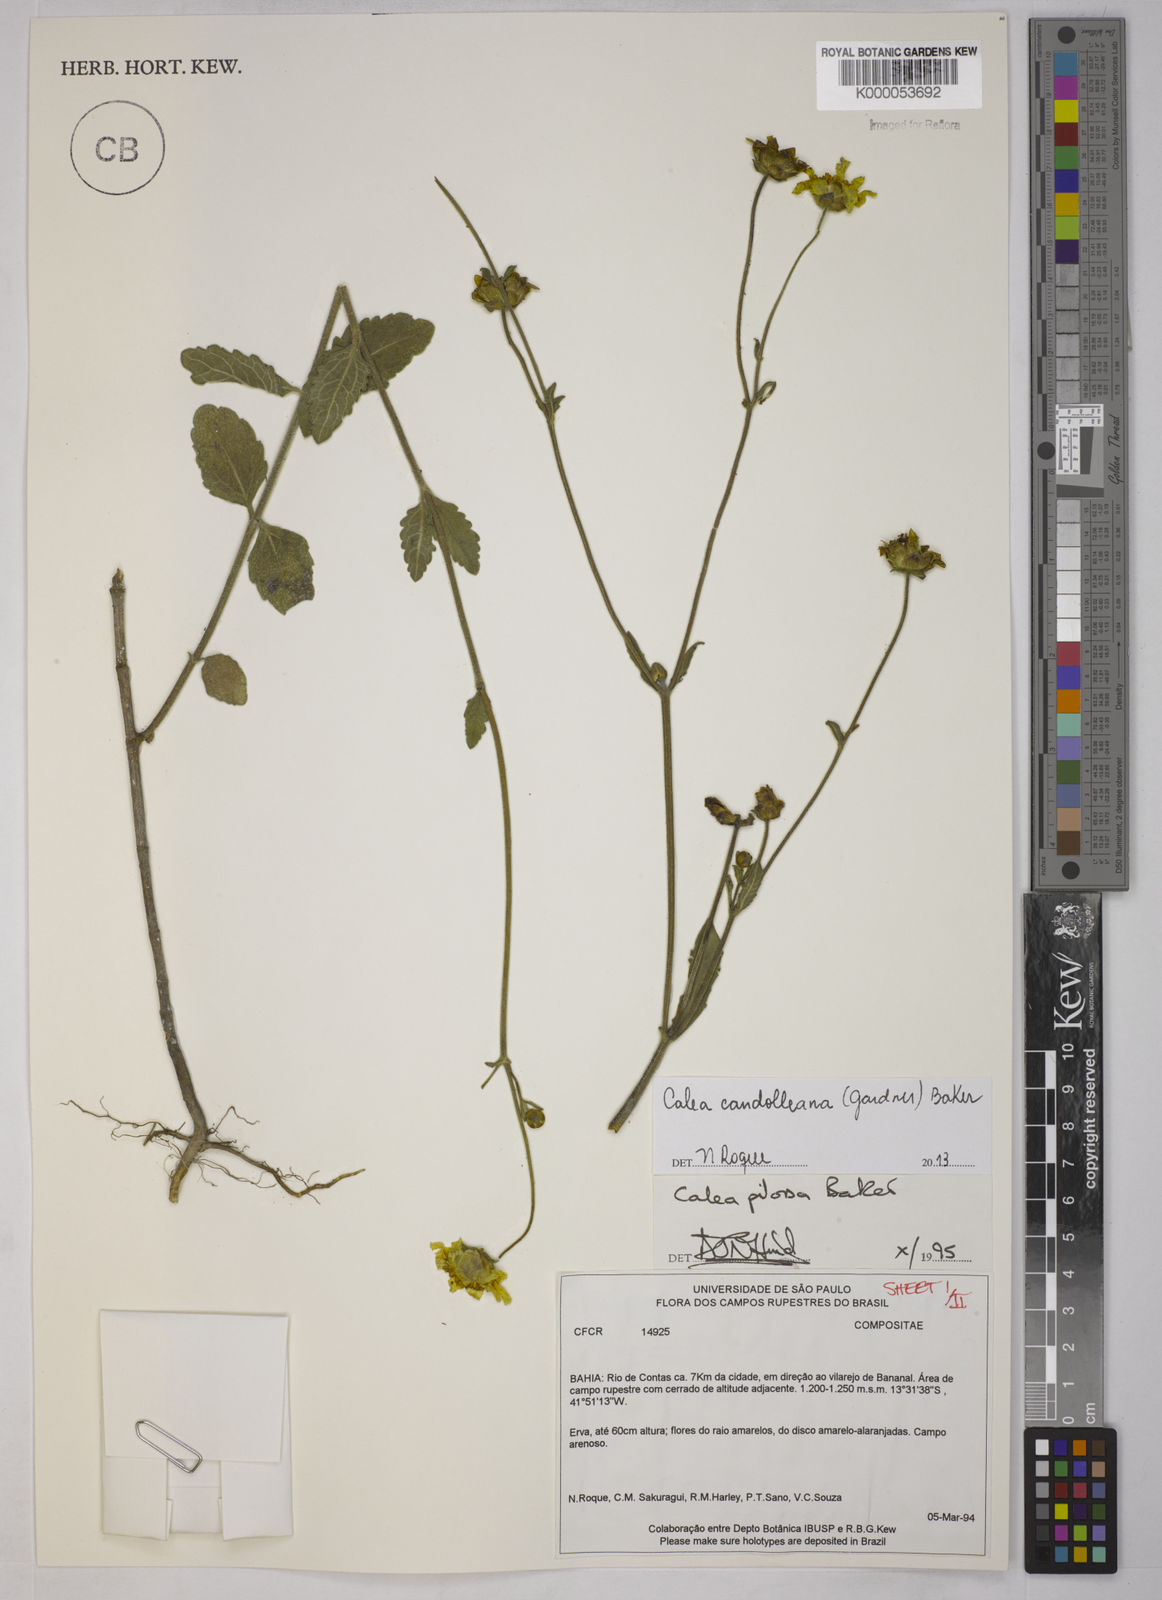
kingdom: Plantae
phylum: Tracheophyta
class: Magnoliopsida
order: Asterales
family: Asteraceae
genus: Calea
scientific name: Calea pilosa
